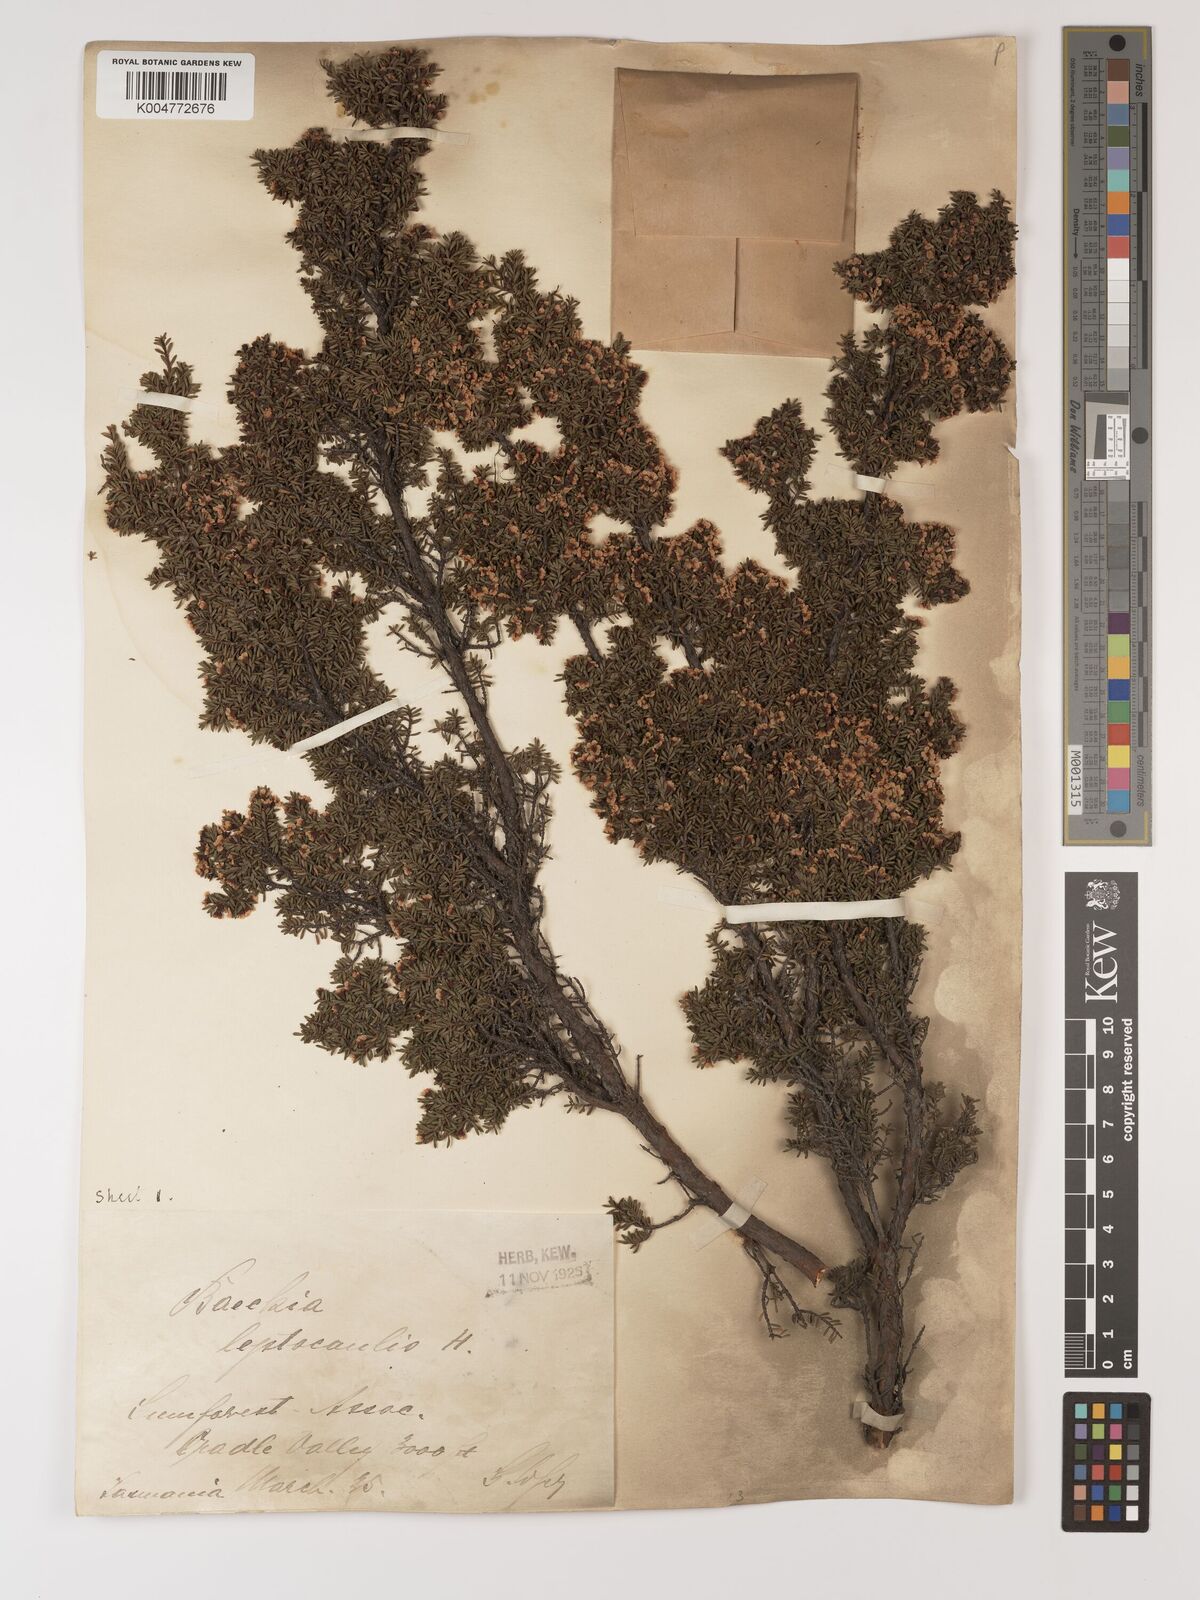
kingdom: Plantae
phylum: Tracheophyta
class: Magnoliopsida
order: Myrtales
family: Myrtaceae
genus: Baeckea
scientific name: Baeckea gunniana
